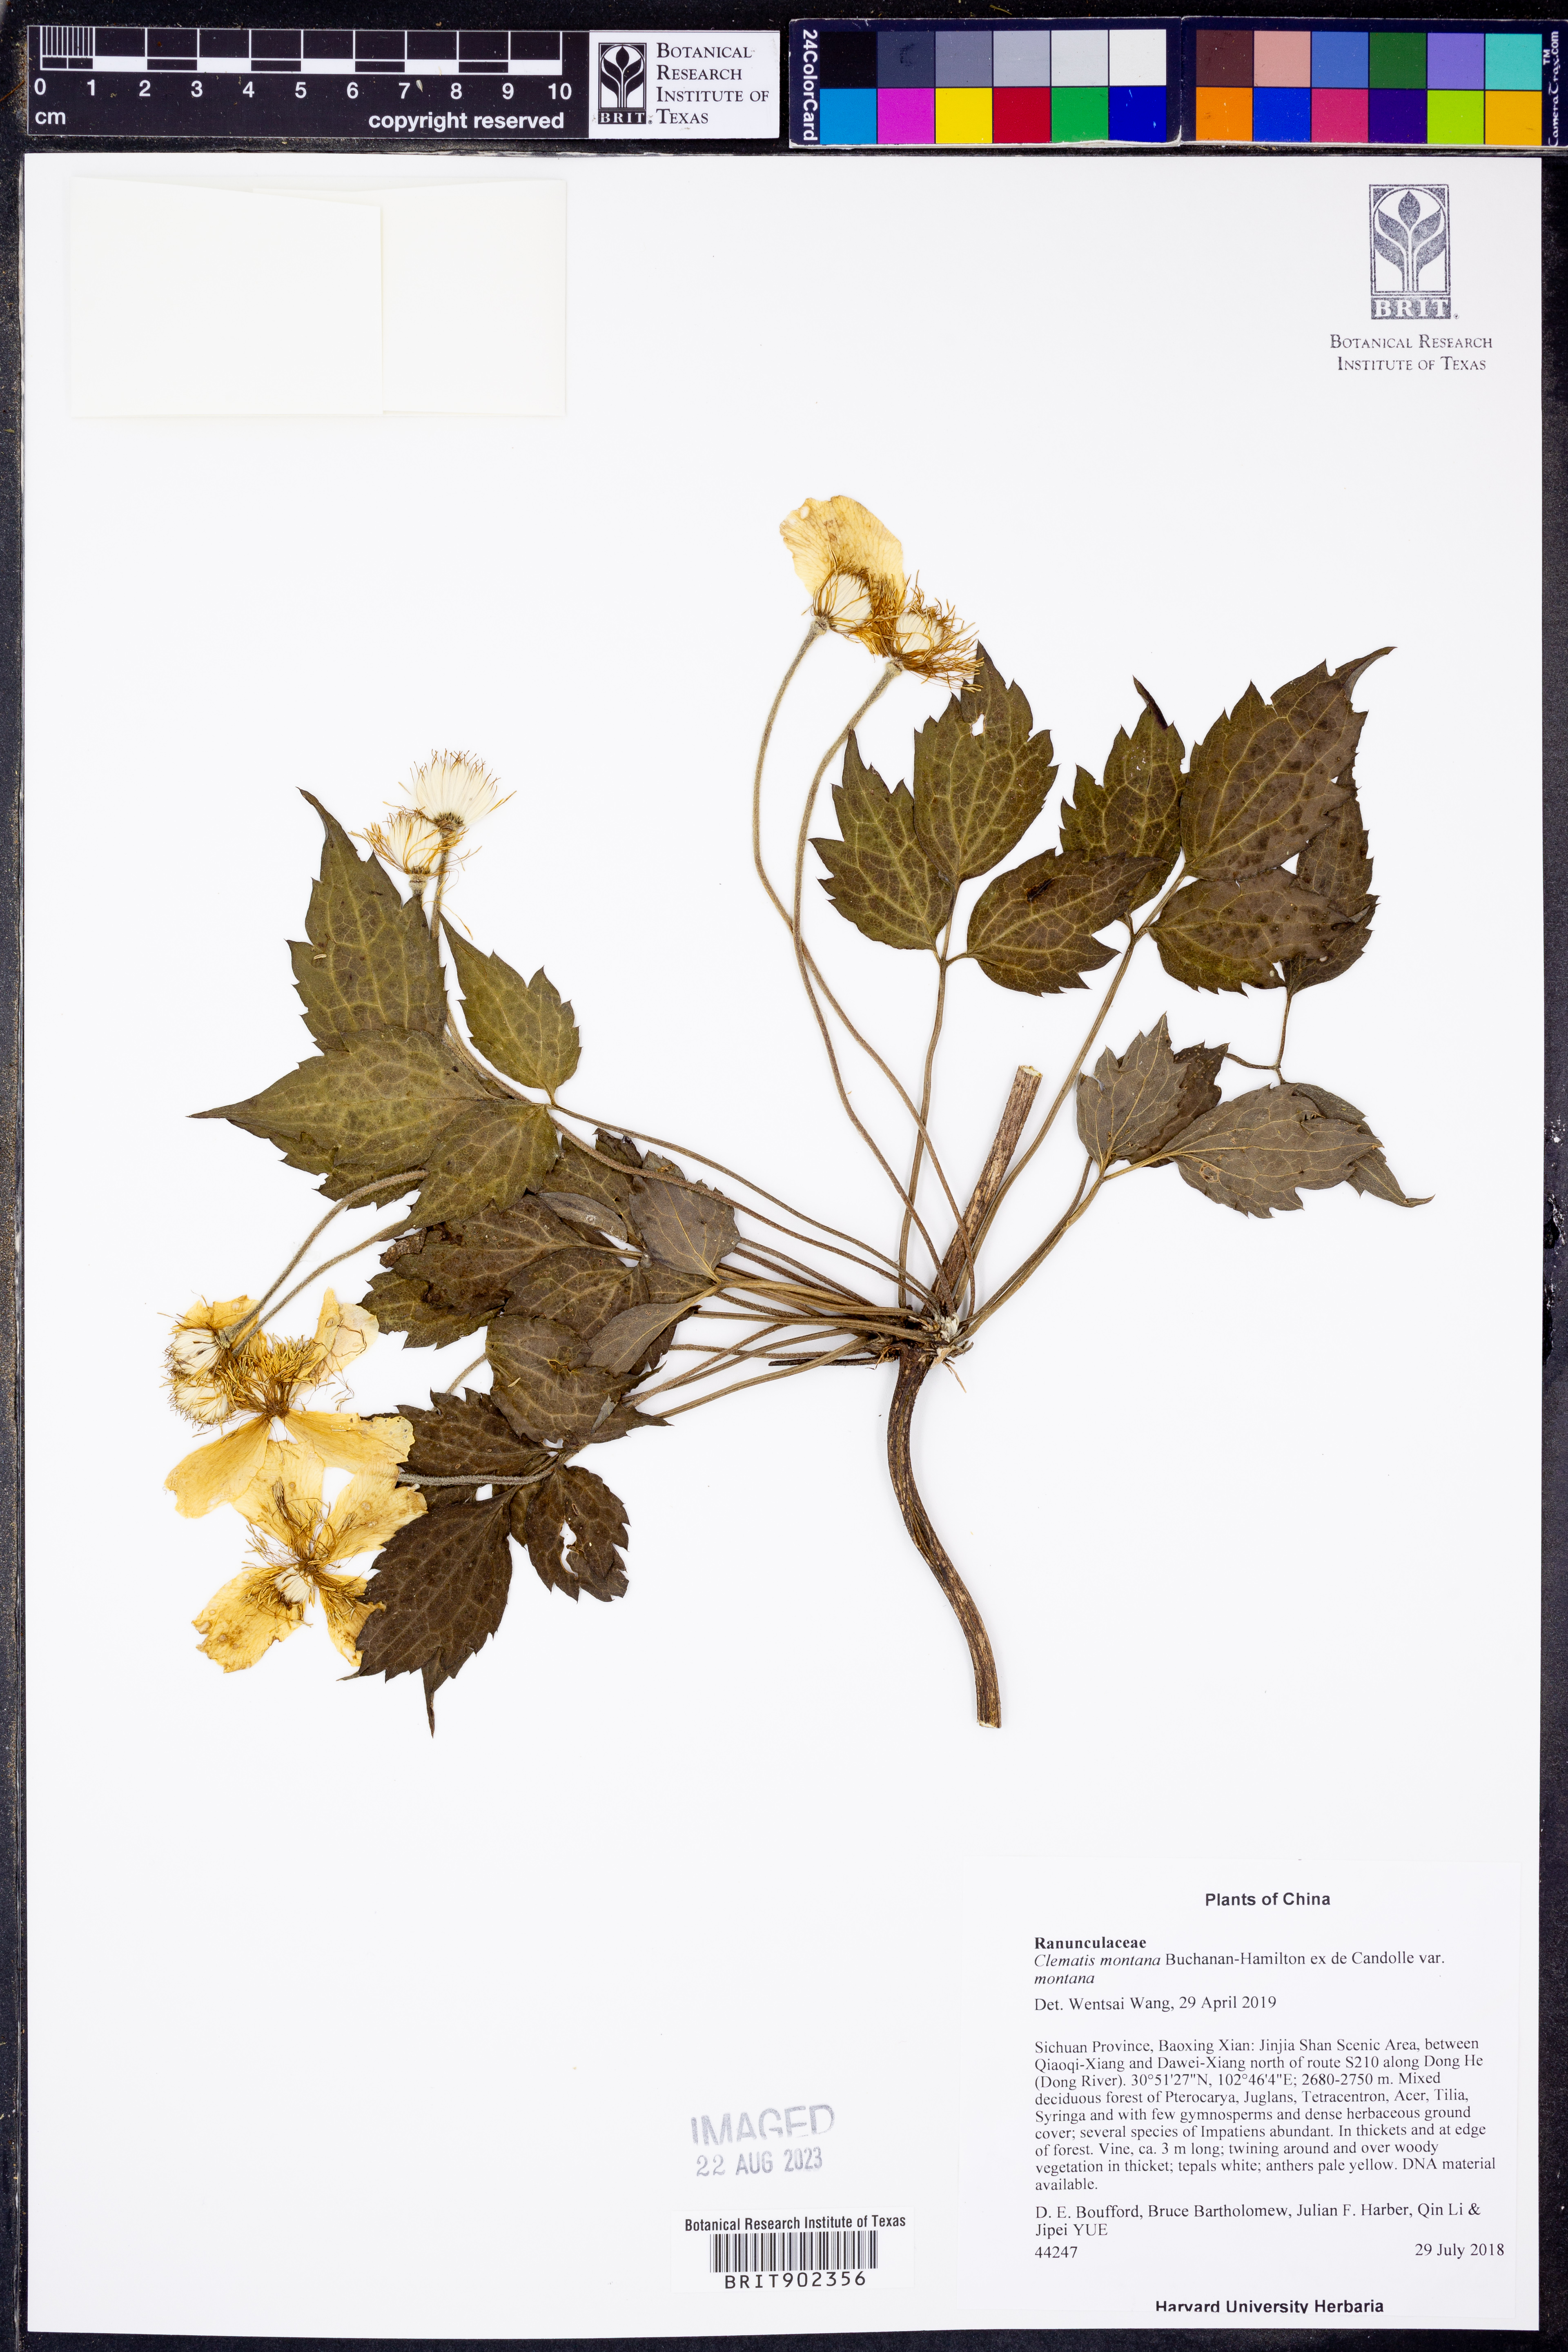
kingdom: Plantae
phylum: Tracheophyta
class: Magnoliopsida
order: Ranunculales
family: Ranunculaceae
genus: Clematis
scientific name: Clematis montana
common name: Himalayan clematis
